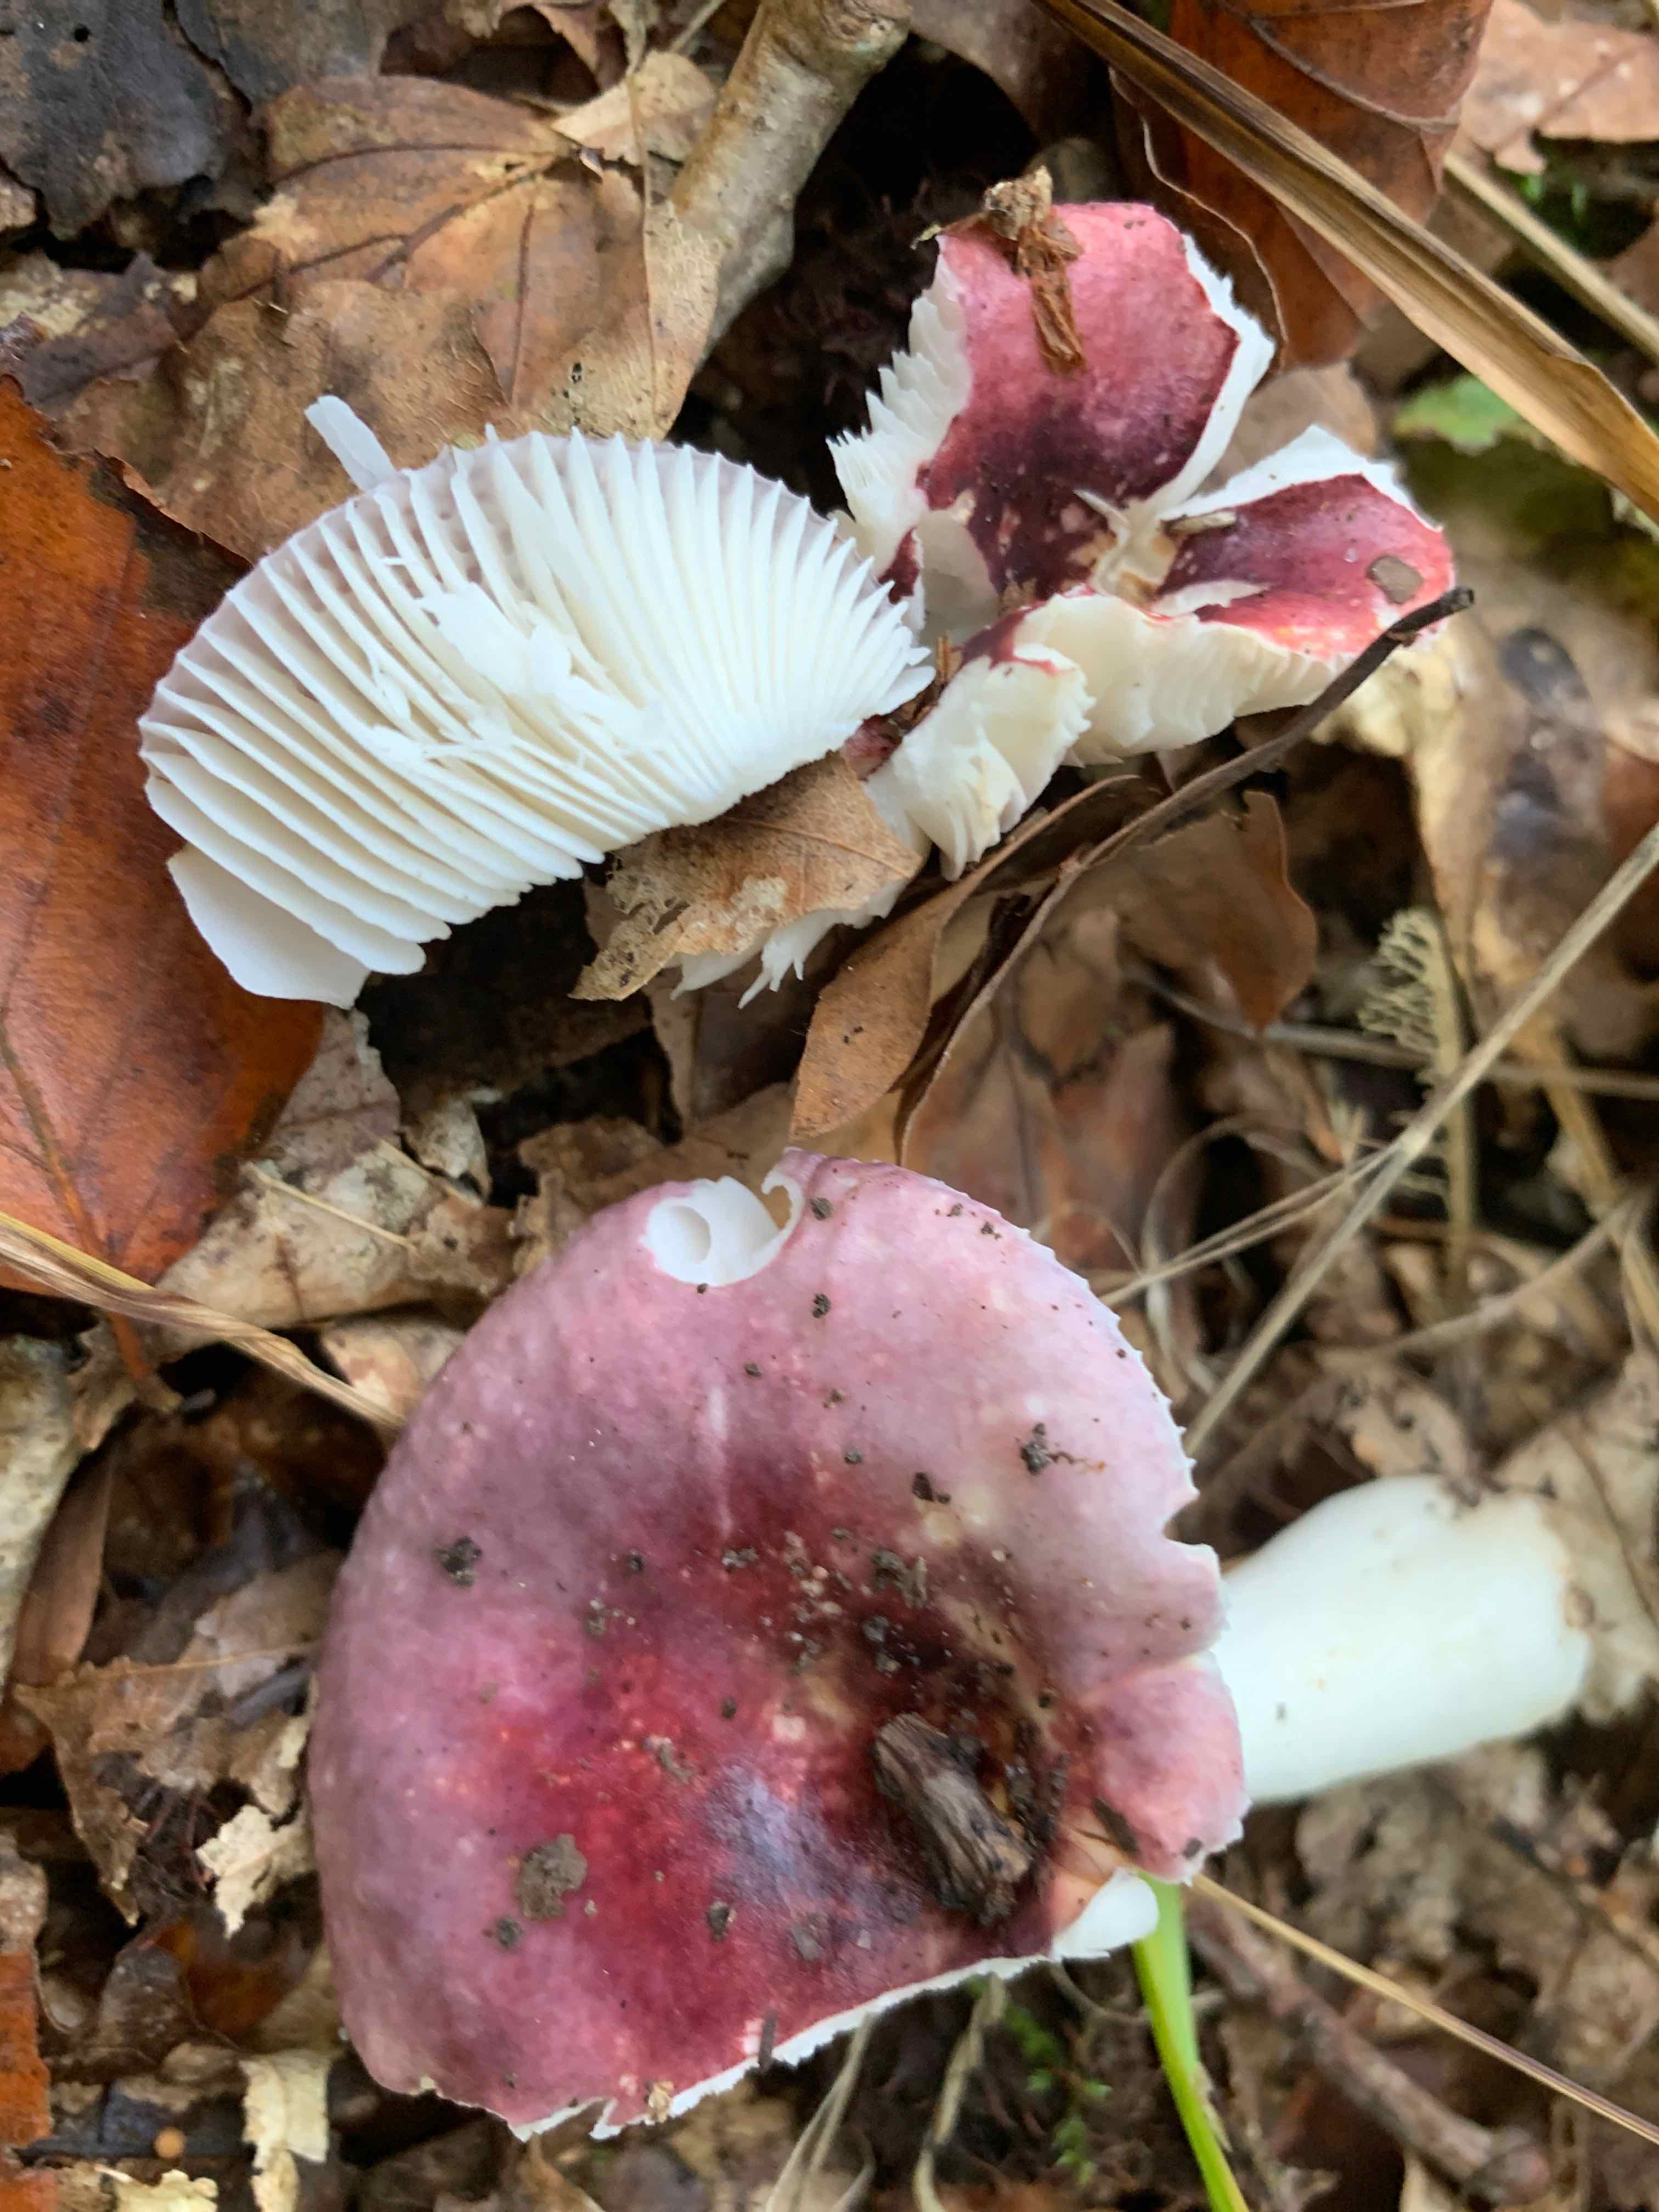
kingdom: Fungi
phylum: Basidiomycota
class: Agaricomycetes
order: Russulales
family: Russulaceae
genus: Russula
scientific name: Russula fragilis
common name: savbladet skørhat
